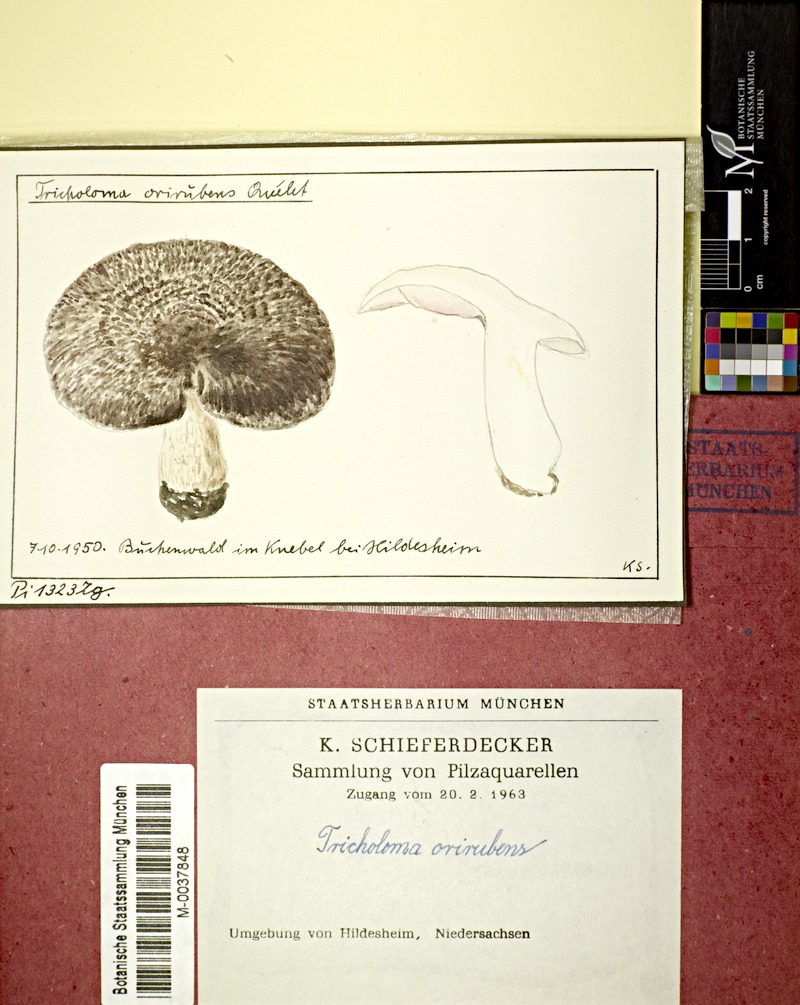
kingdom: Fungi
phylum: Basidiomycota
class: Agaricomycetes
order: Agaricales
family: Tricholomataceae
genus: Tricholoma
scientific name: Tricholoma orirubens
